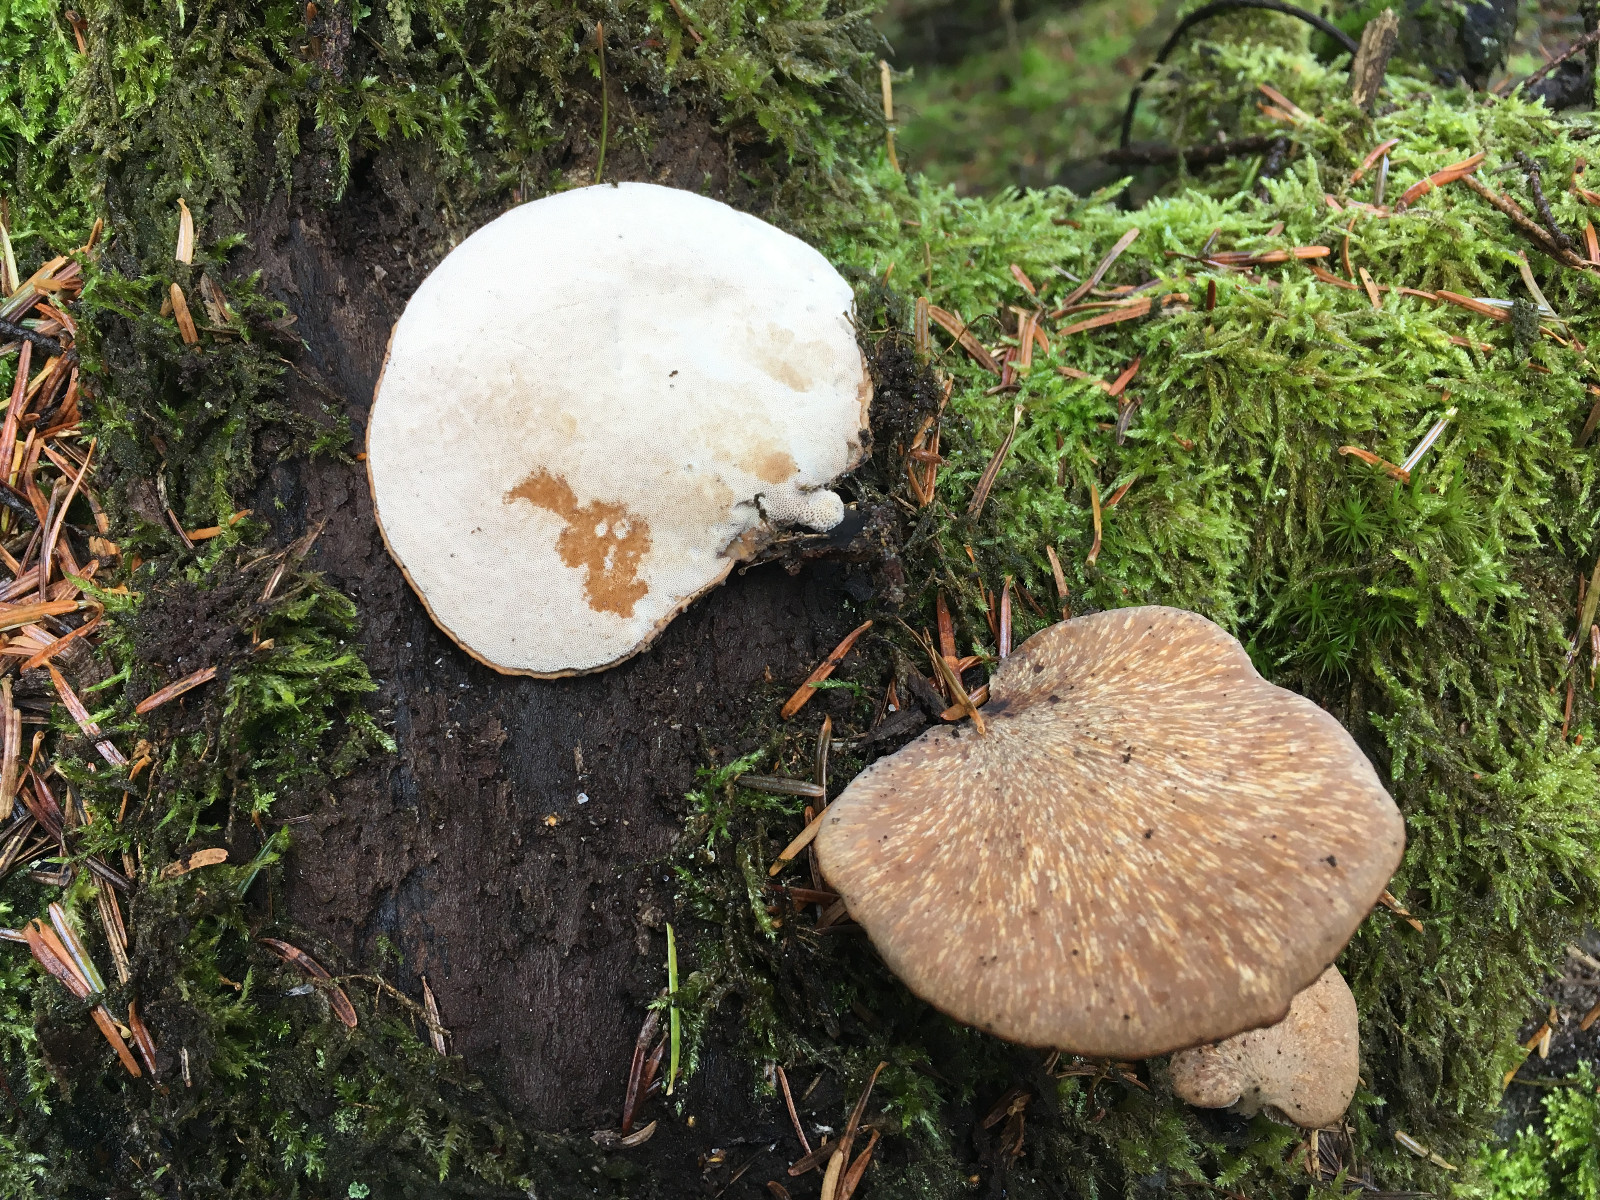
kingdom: Fungi
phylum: Basidiomycota
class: Agaricomycetes
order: Polyporales
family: Fomitopsidaceae
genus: Fomitopsis
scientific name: Fomitopsis betulina
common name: birkeporesvamp
